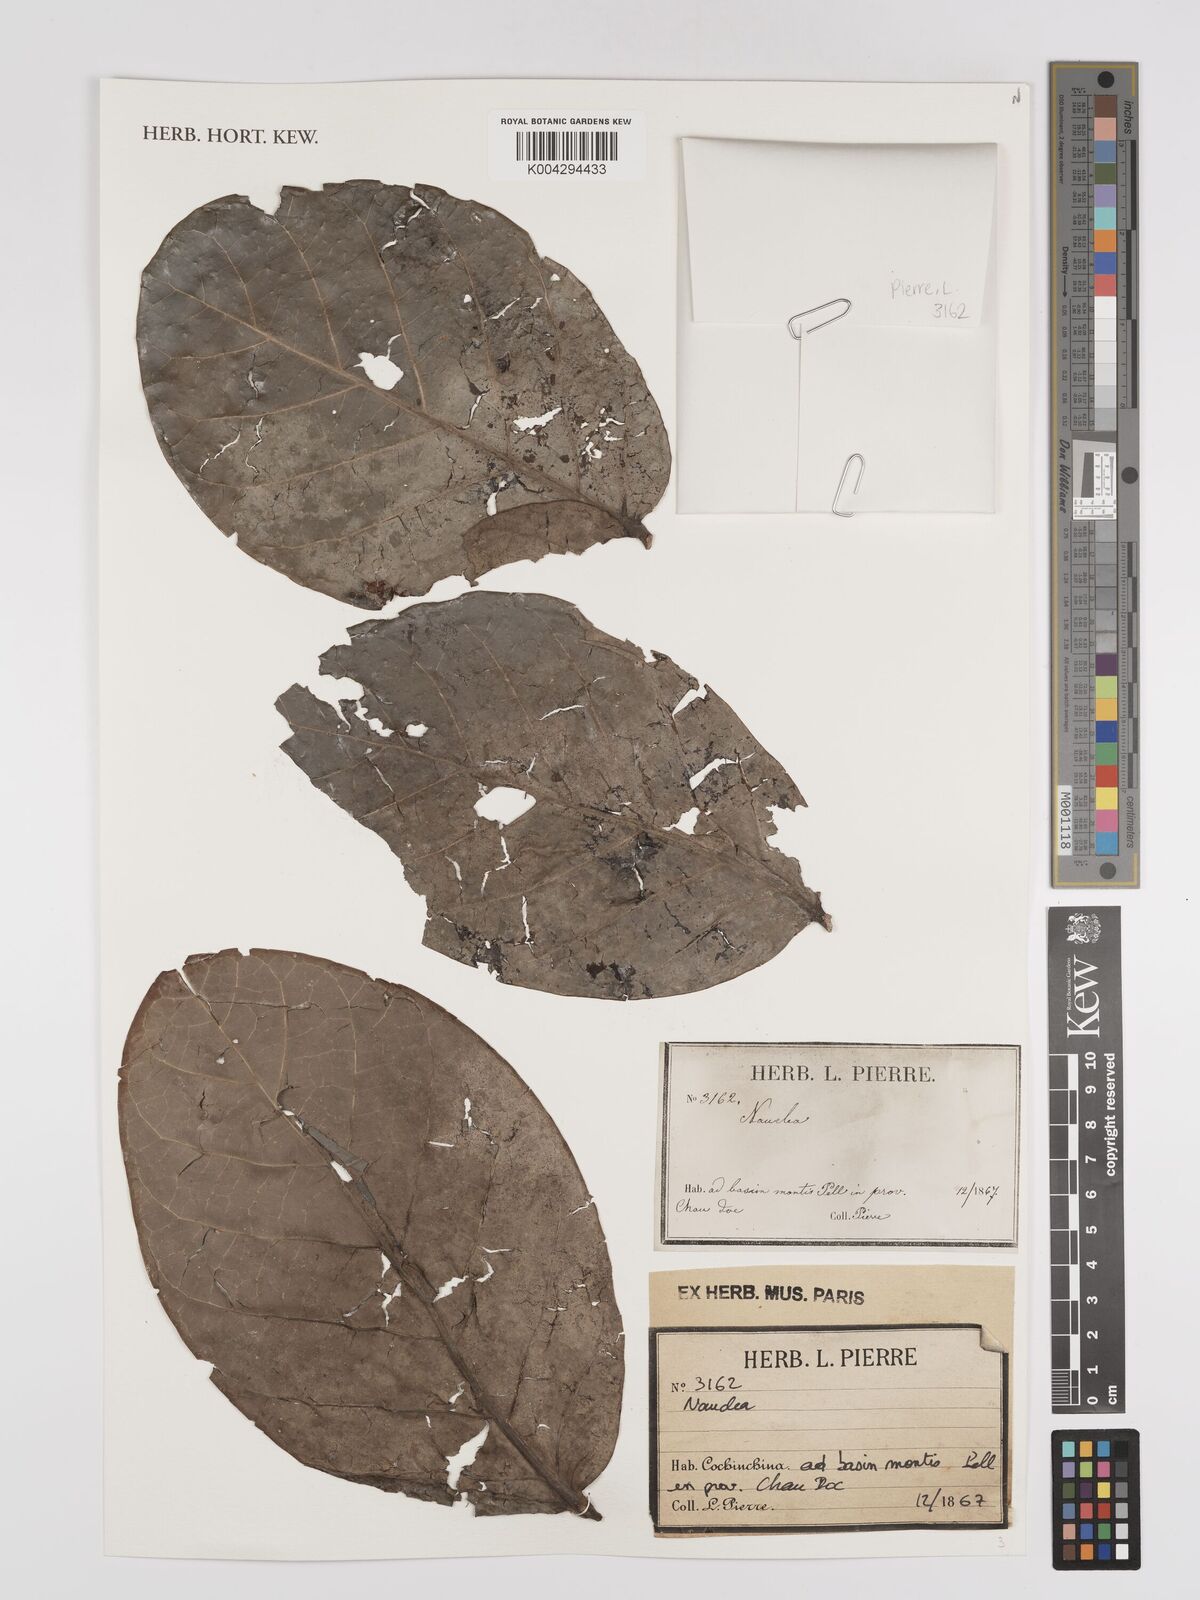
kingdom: Plantae
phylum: Tracheophyta
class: Magnoliopsida
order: Gentianales
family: Rubiaceae
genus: Nauclea
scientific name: Nauclea
